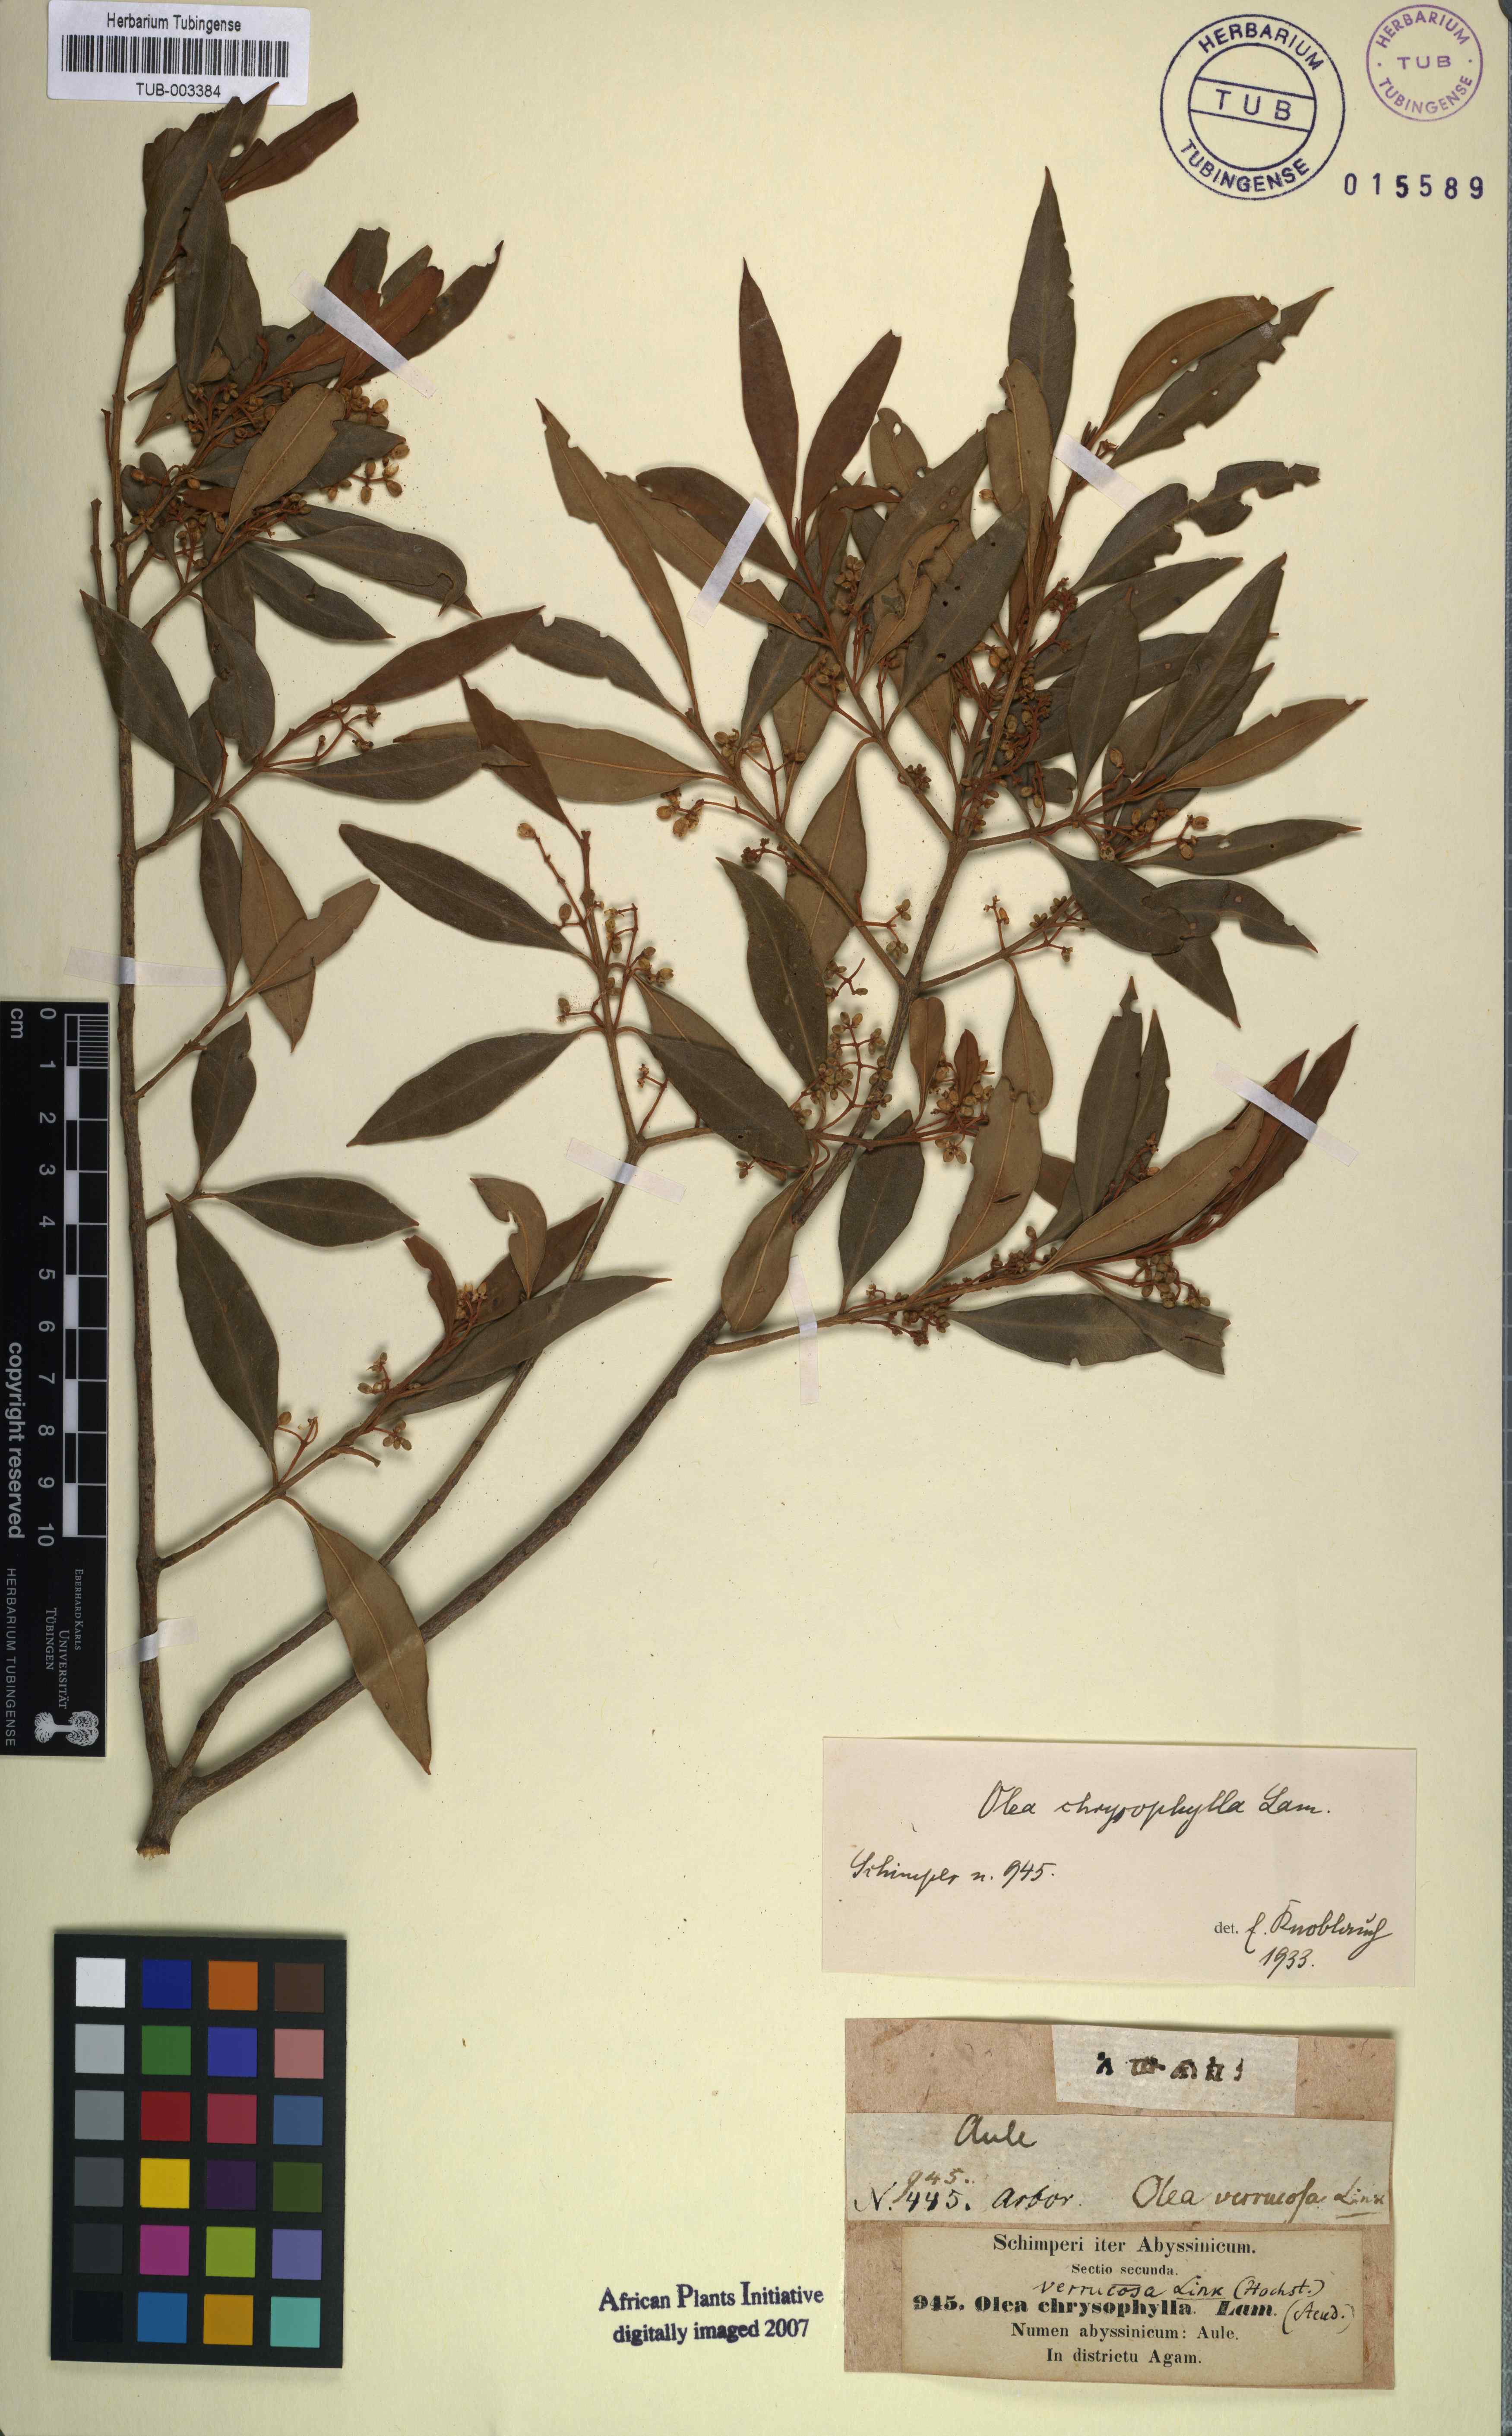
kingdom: Plantae
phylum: Tracheophyta
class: Magnoliopsida
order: Lamiales
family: Oleaceae
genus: Olea
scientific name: Olea europaea
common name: Olive
